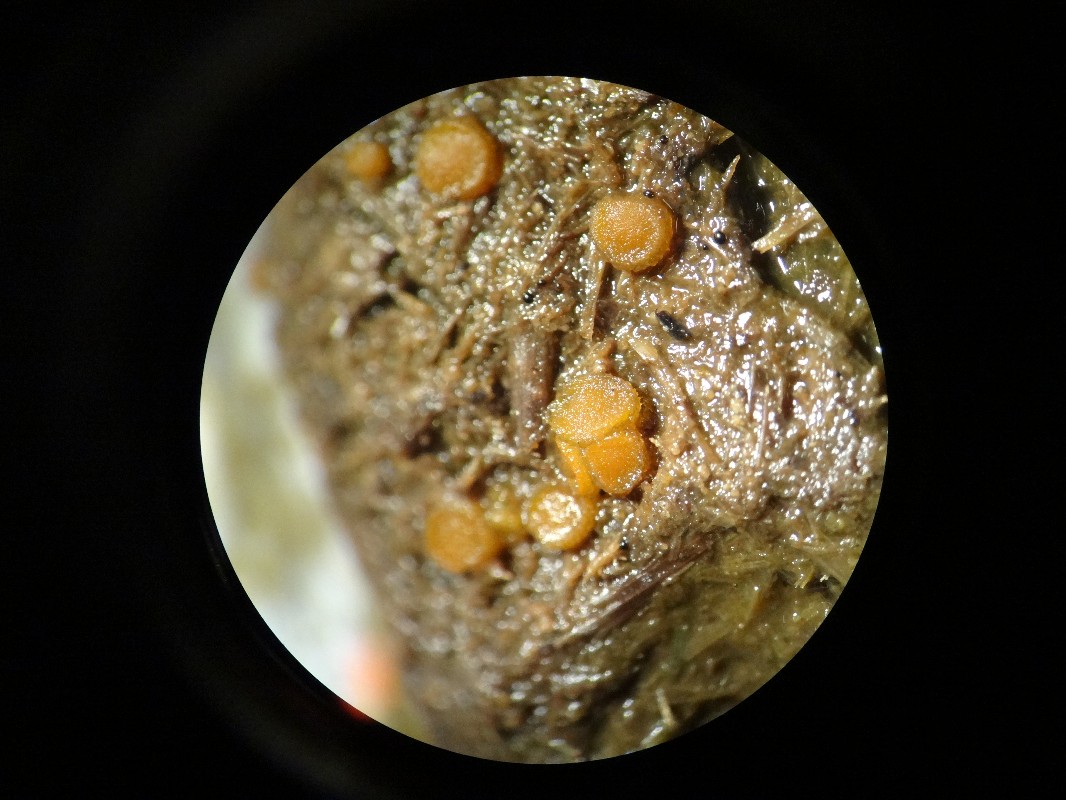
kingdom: Fungi
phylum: Ascomycota
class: Pezizomycetes
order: Pezizales
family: Pyronemataceae
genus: Cheilymenia
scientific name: Cheilymenia granulata
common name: møgbæger
